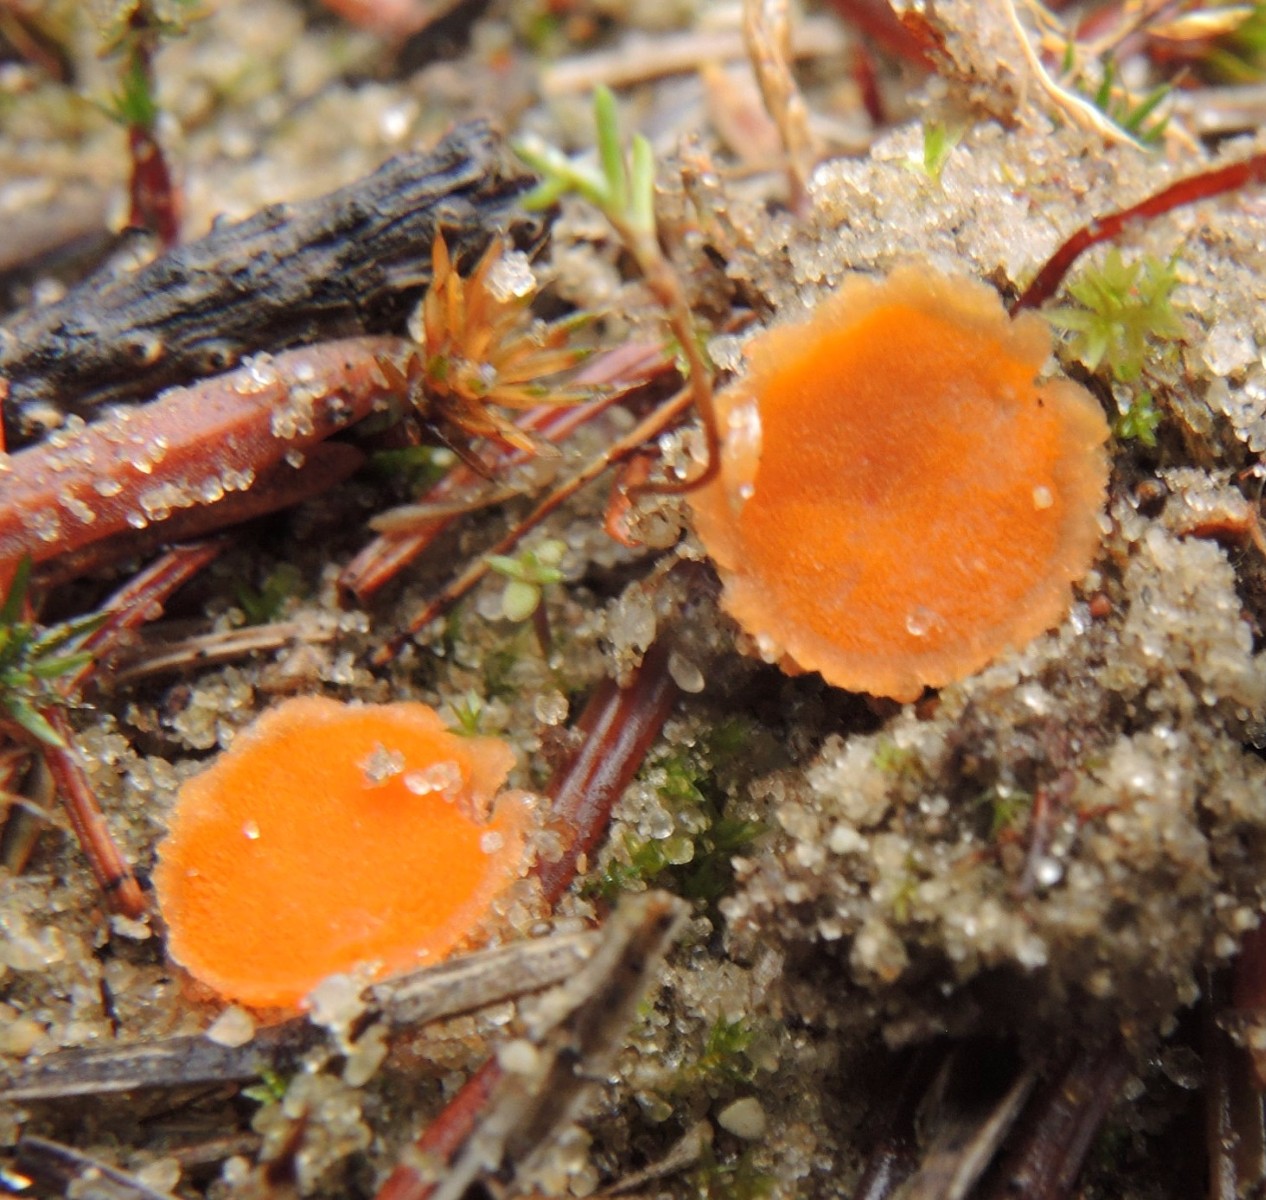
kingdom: Fungi
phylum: Ascomycota
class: Pezizomycetes
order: Pezizales
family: Pyronemataceae
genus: Octospora
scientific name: Octospora humosa
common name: Hotlips
